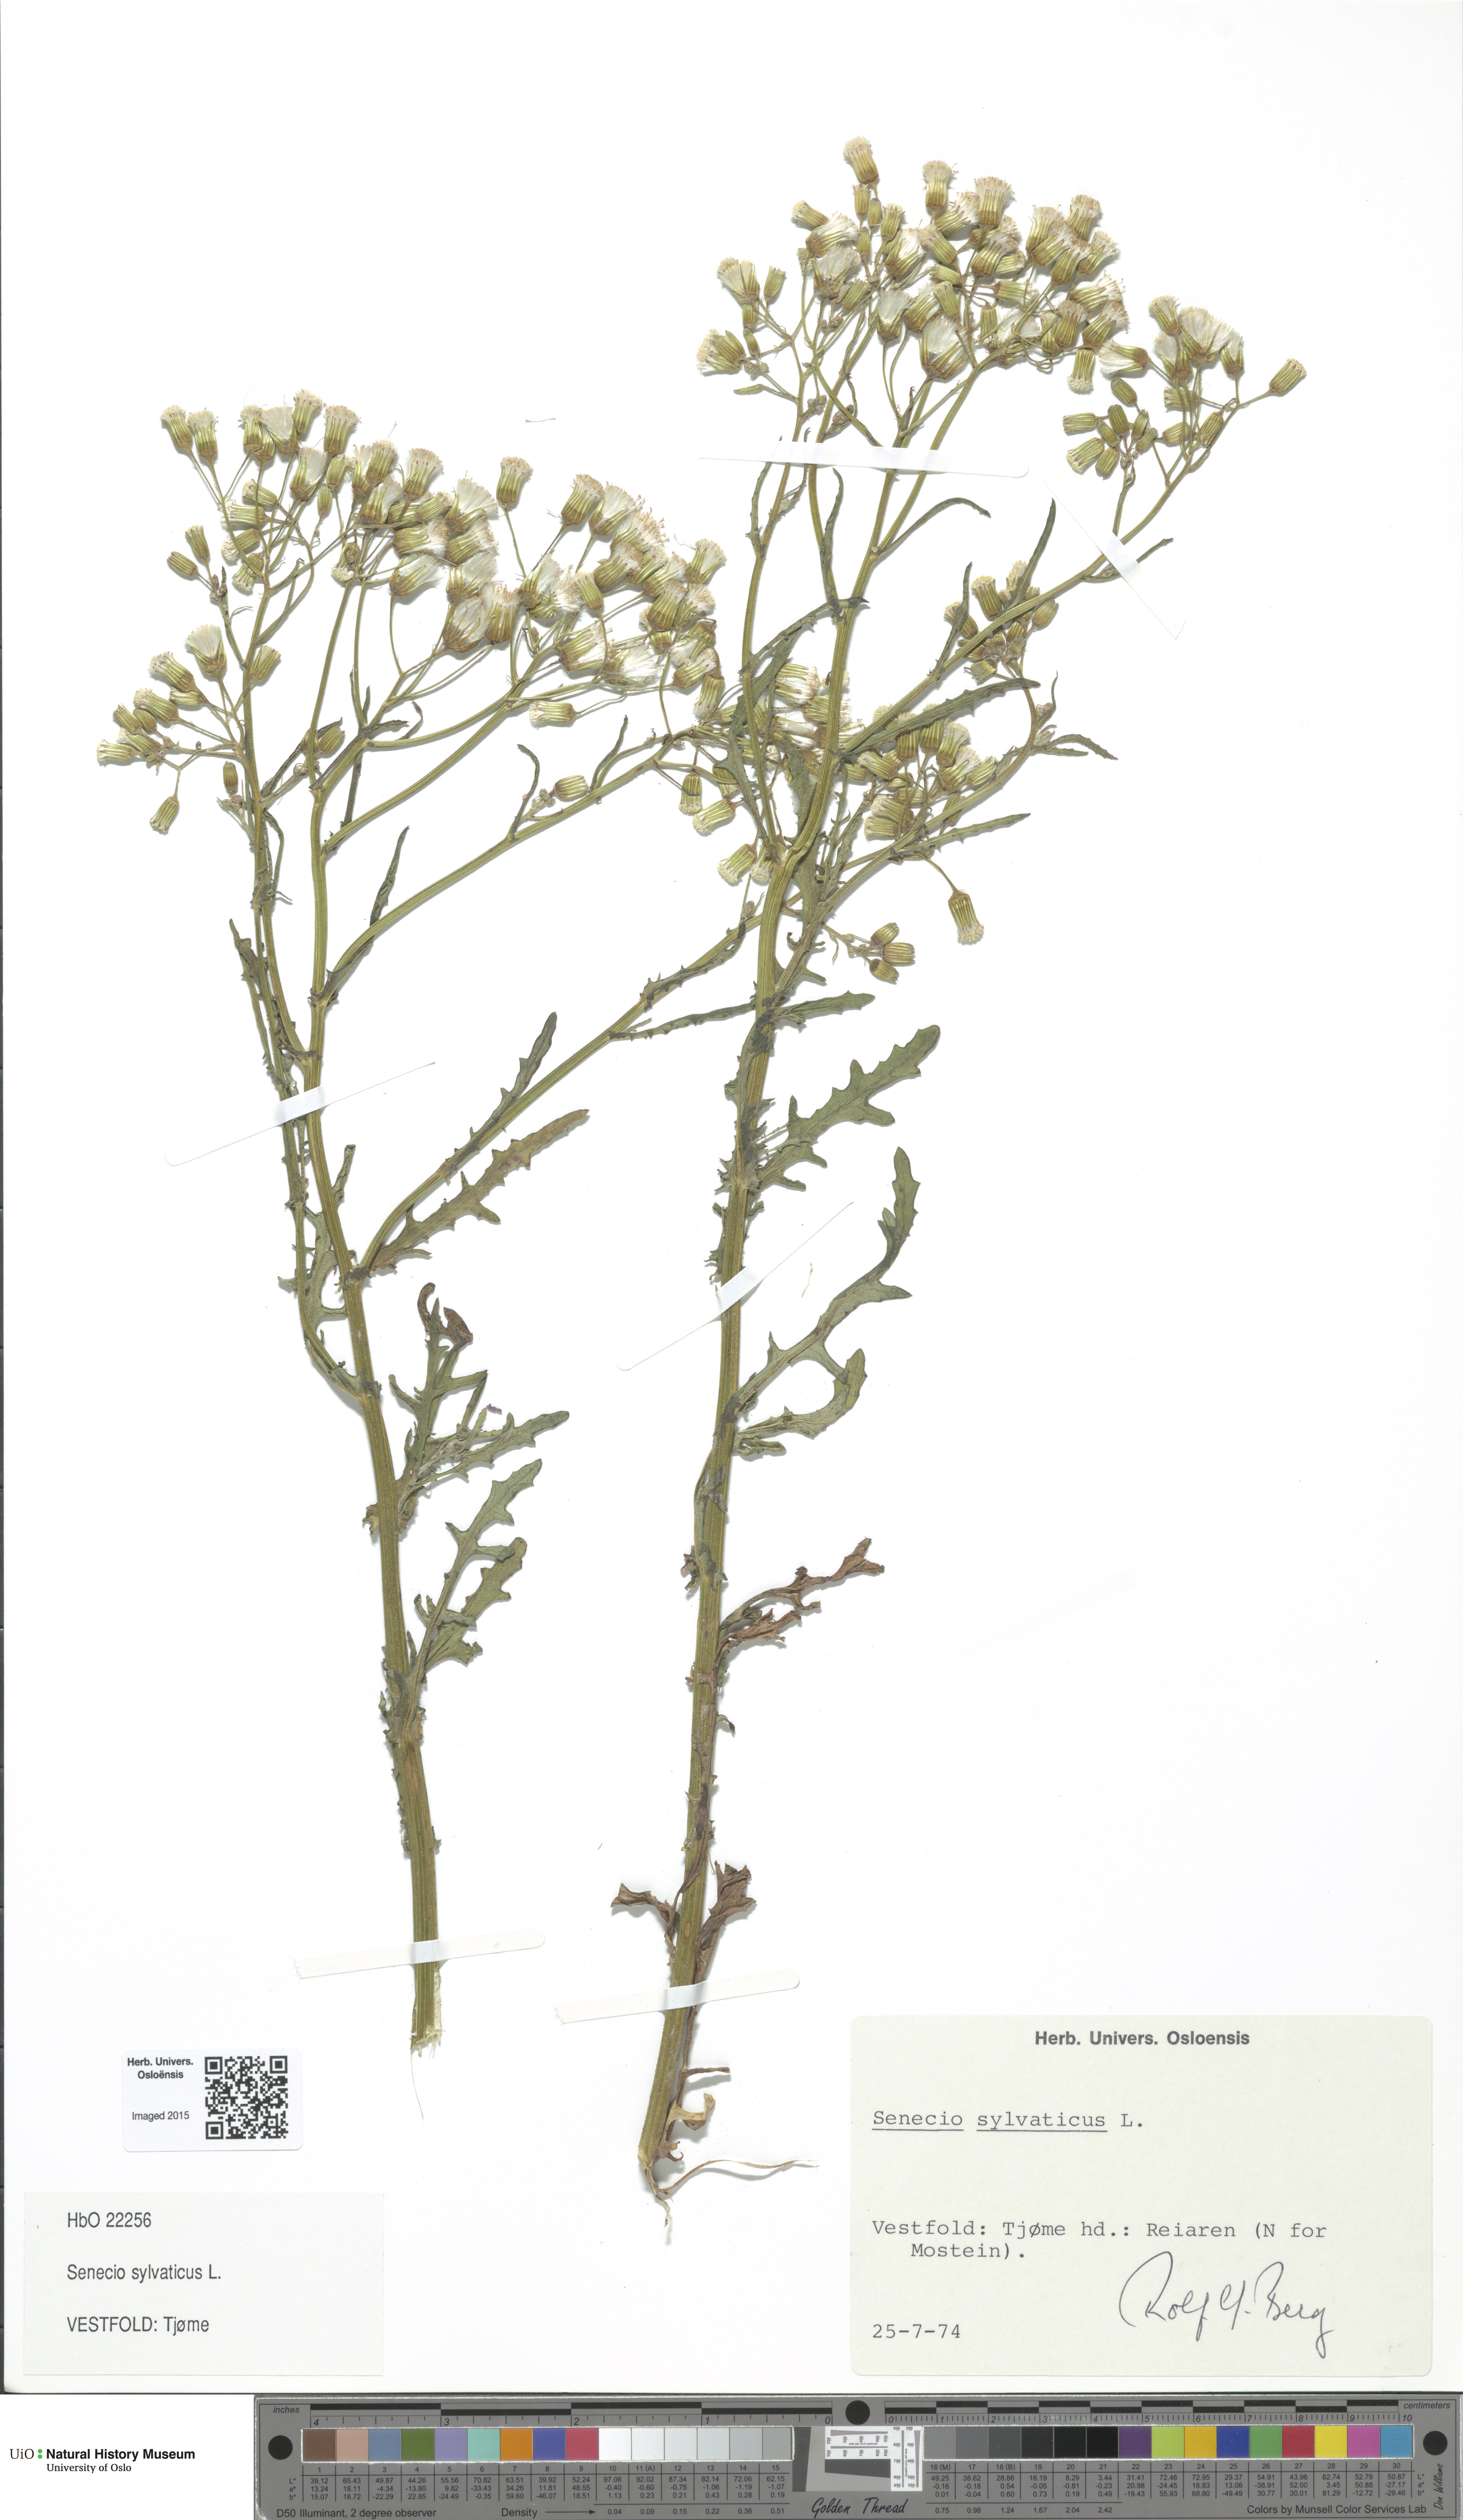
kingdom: Plantae
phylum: Tracheophyta
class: Magnoliopsida
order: Asterales
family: Asteraceae
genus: Senecio
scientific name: Senecio sylvaticus
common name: Woodland ragwort
